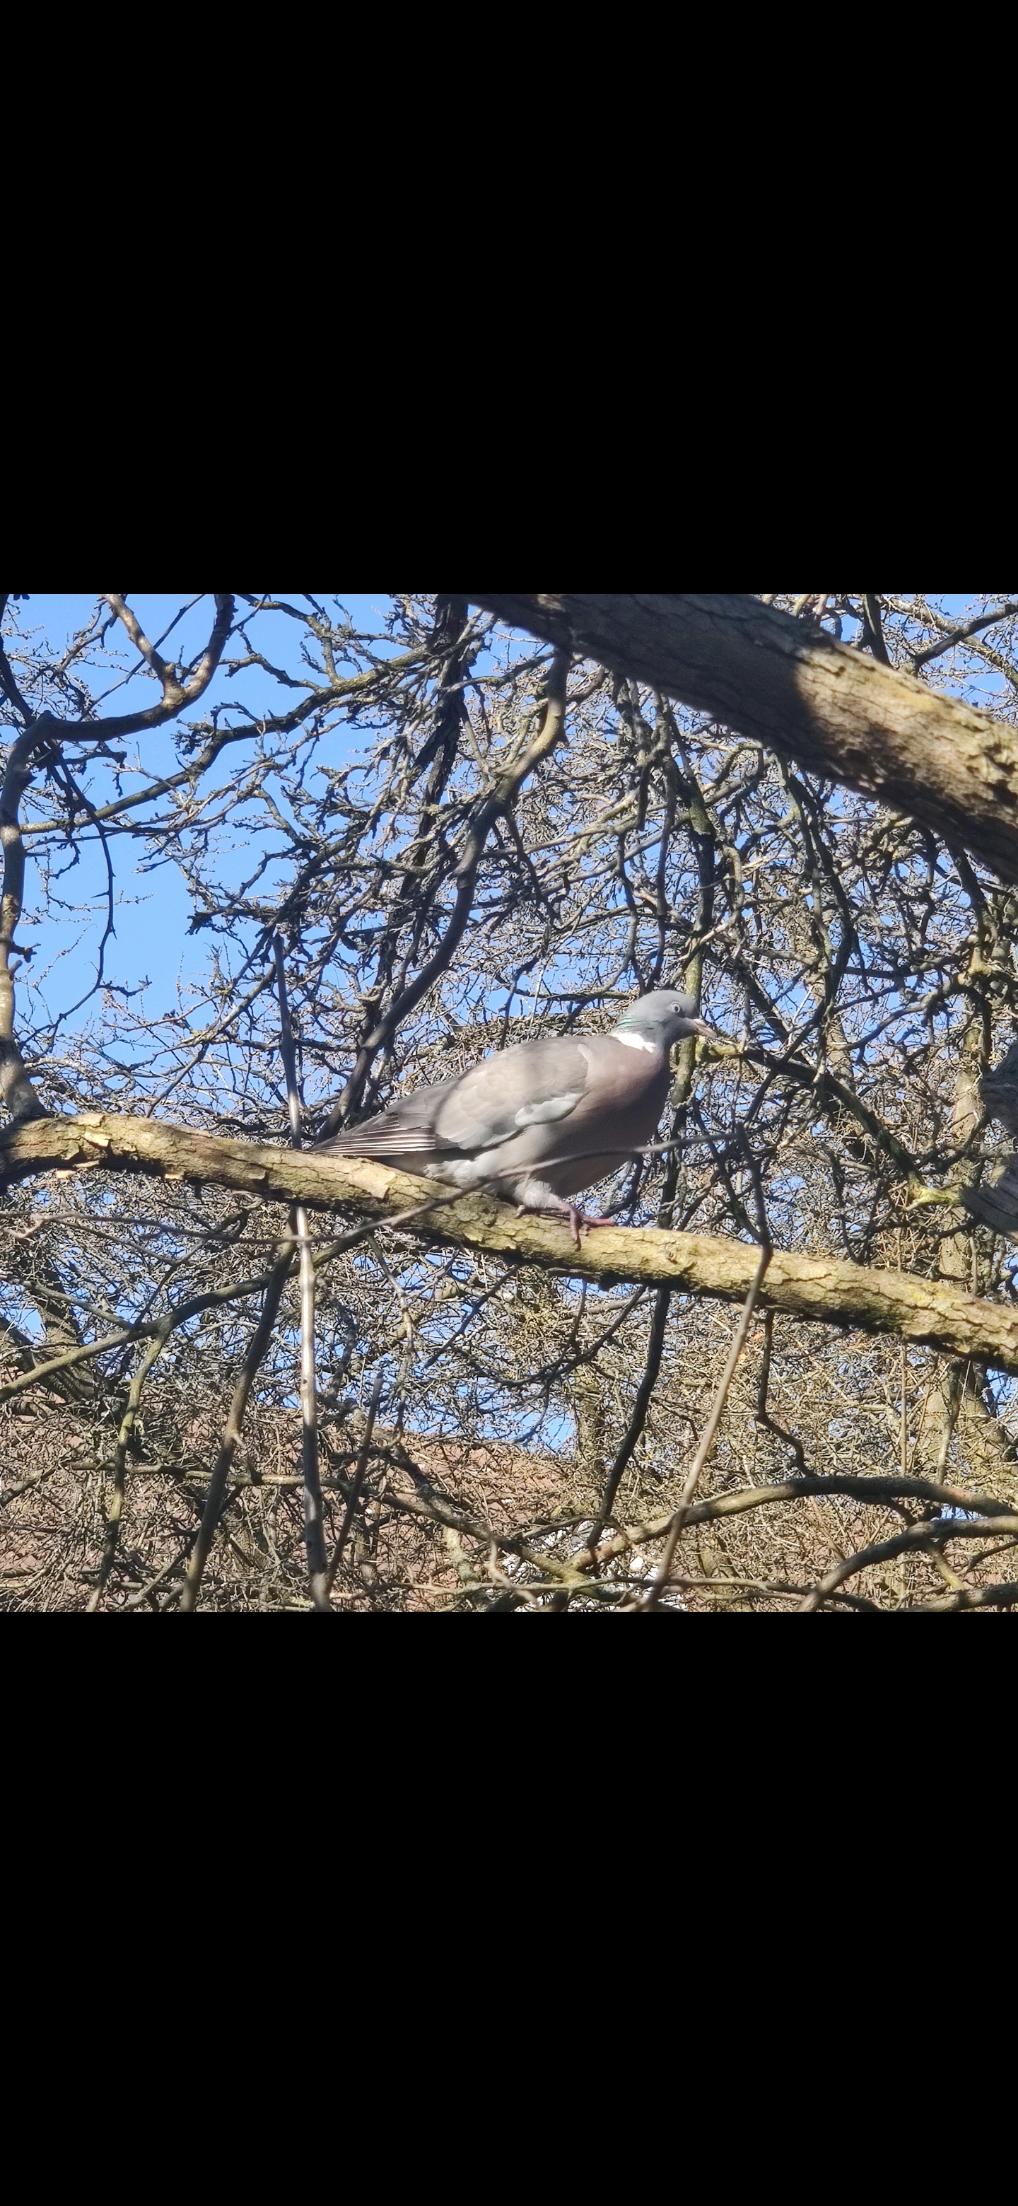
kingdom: Animalia
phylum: Chordata
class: Aves
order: Columbiformes
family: Columbidae
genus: Columba
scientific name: Columba palumbus
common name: Ringdue
